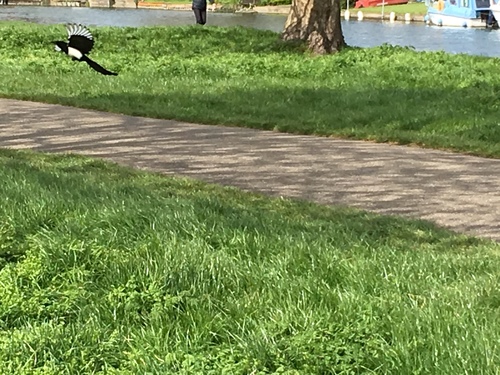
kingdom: Animalia
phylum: Chordata
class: Aves
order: Passeriformes
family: Corvidae
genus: Pica
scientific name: Pica pica
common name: Eurasian magpie
